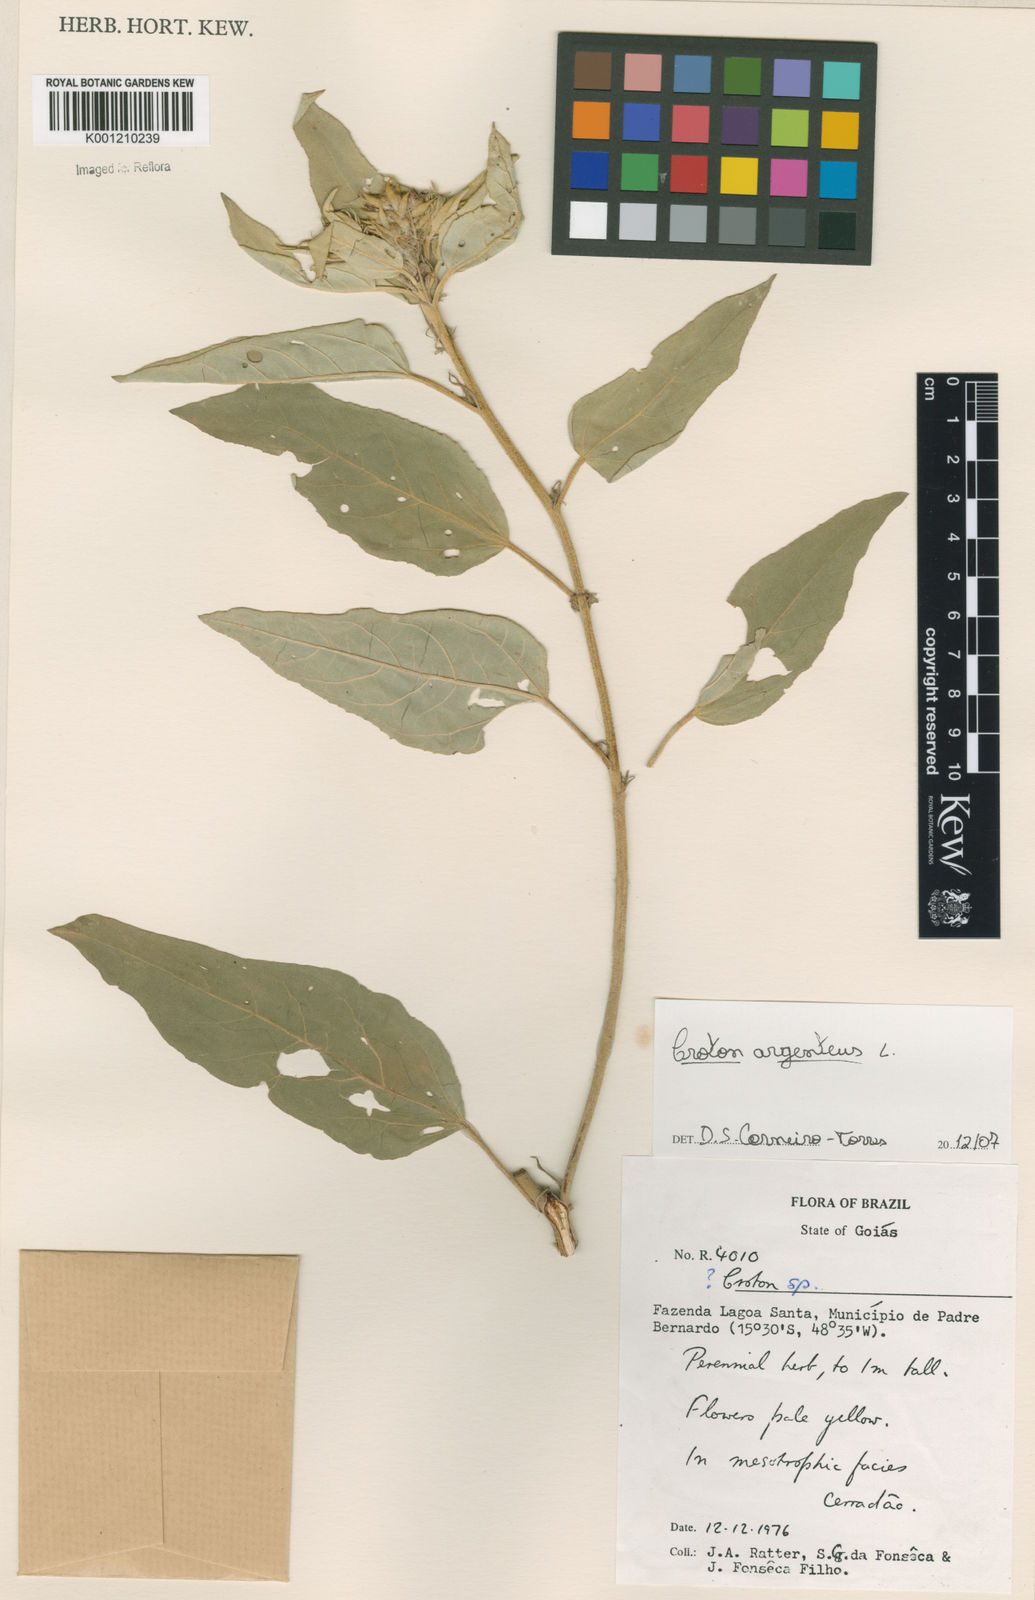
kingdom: Plantae
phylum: Tracheophyta
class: Magnoliopsida
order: Malpighiales
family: Euphorbiaceae
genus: Croton
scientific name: Croton argenteus
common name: Silver july croton
